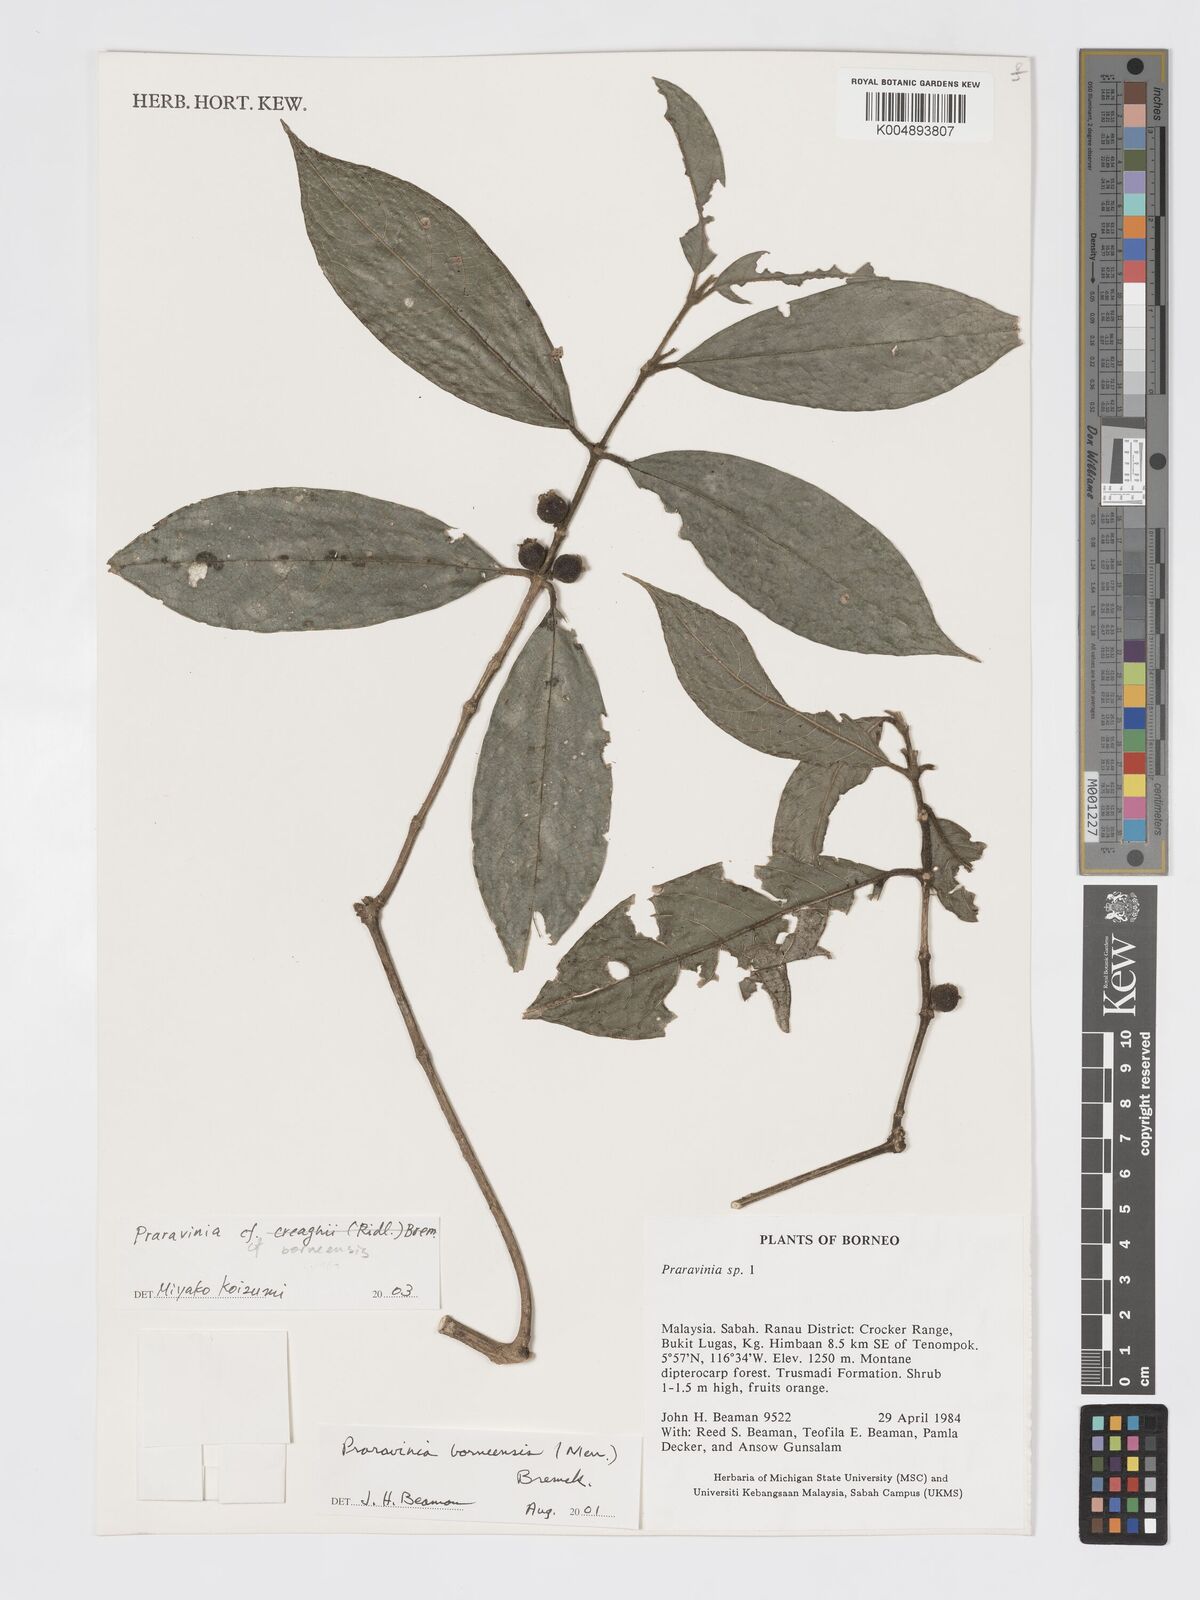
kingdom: Plantae
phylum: Tracheophyta
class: Magnoliopsida
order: Gentianales
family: Rubiaceae
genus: Praravinia
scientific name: Praravinia borneensis
